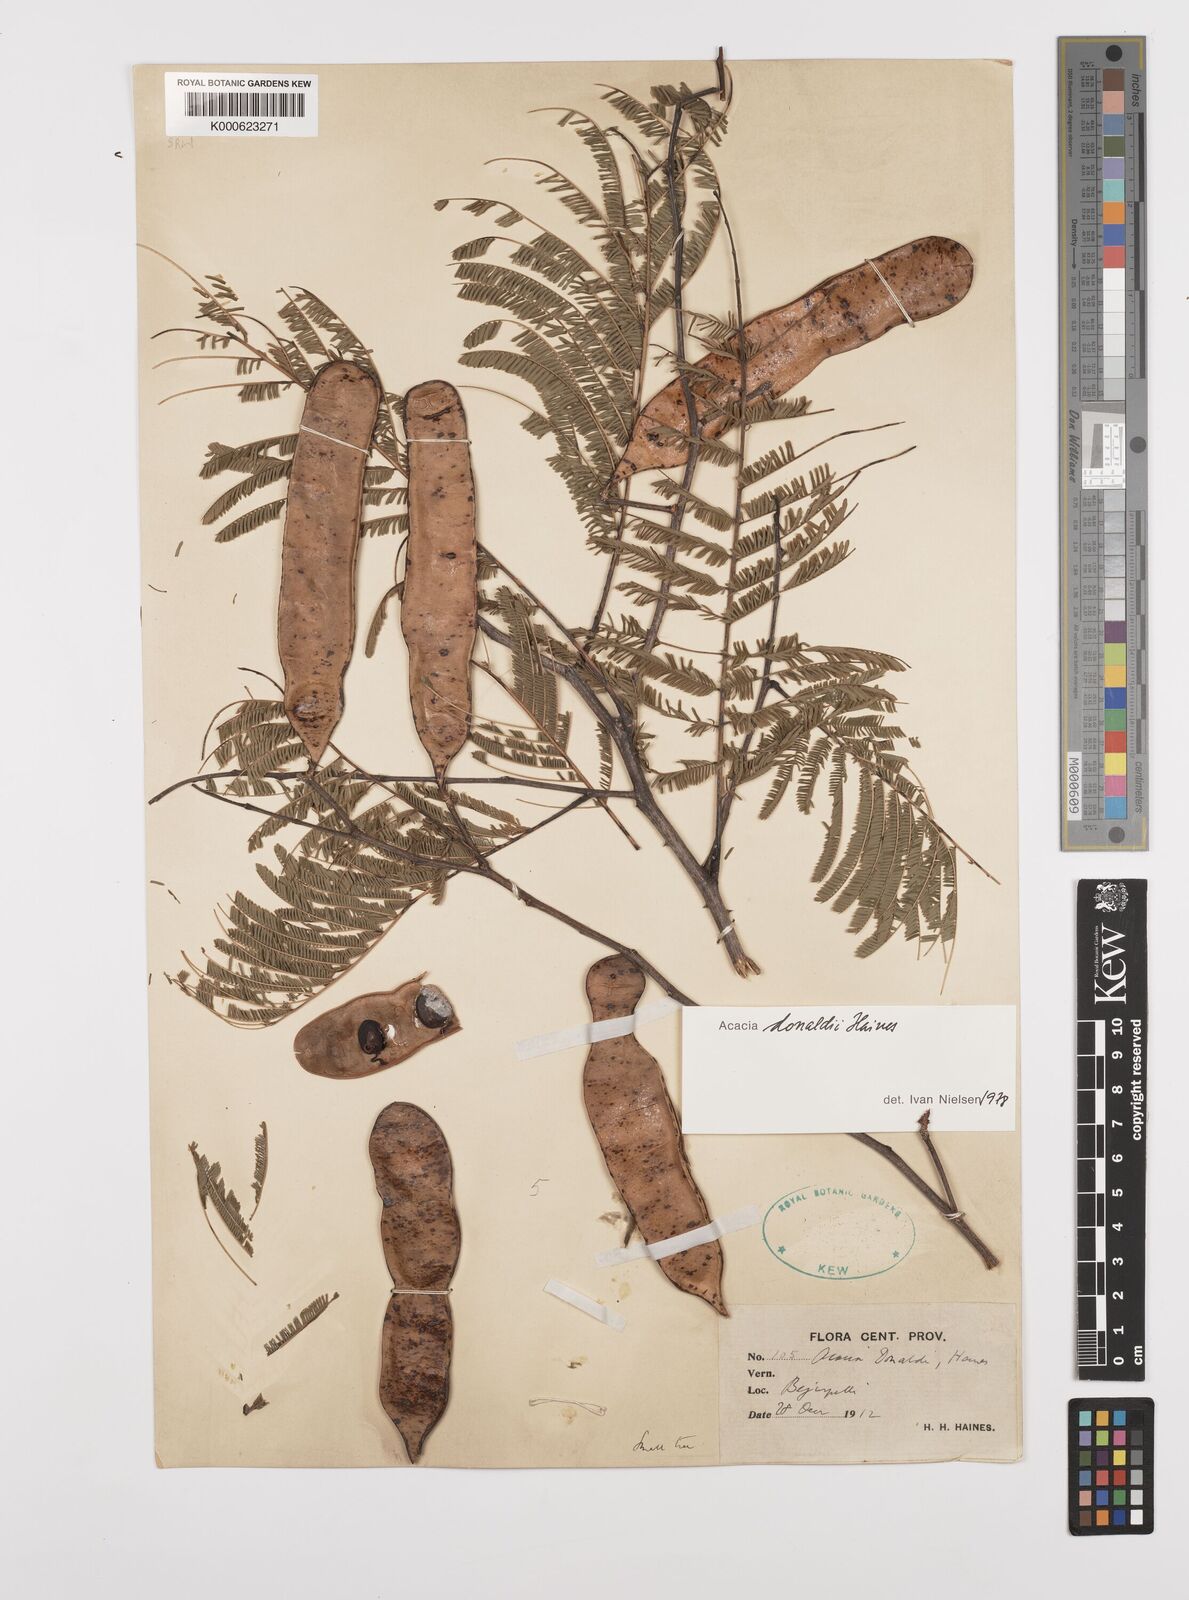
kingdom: Plantae
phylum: Tracheophyta
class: Magnoliopsida
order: Fabales
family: Fabaceae
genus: Senegalia
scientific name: Senegalia donaldi
